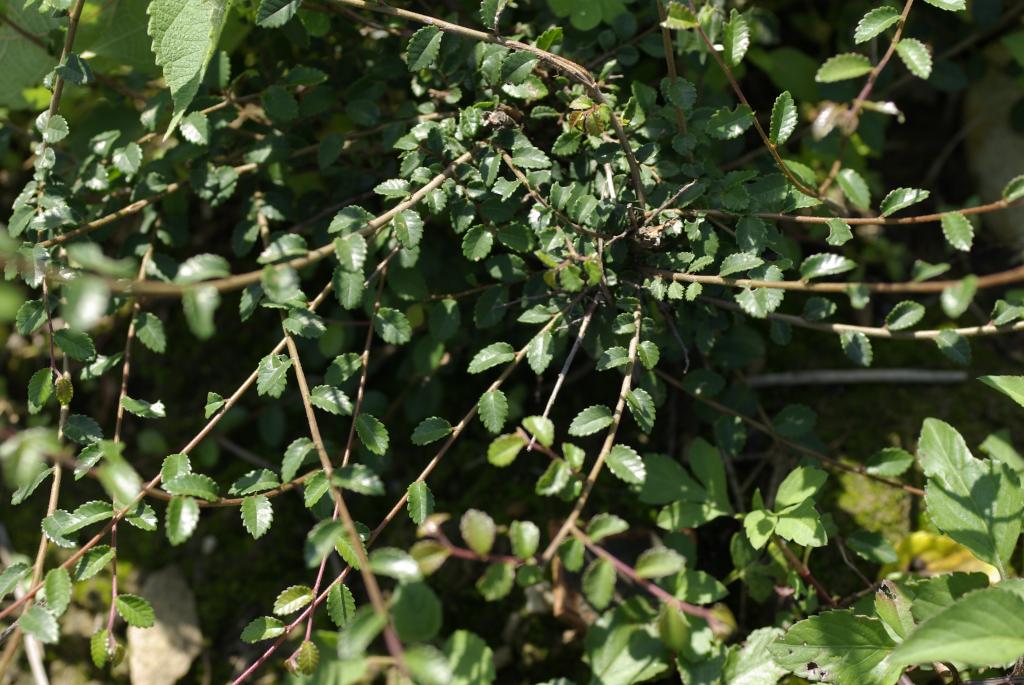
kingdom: Plantae
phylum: Tracheophyta
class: Magnoliopsida
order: Rosales
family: Ulmaceae
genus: Zelkova
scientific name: Zelkova serrata
